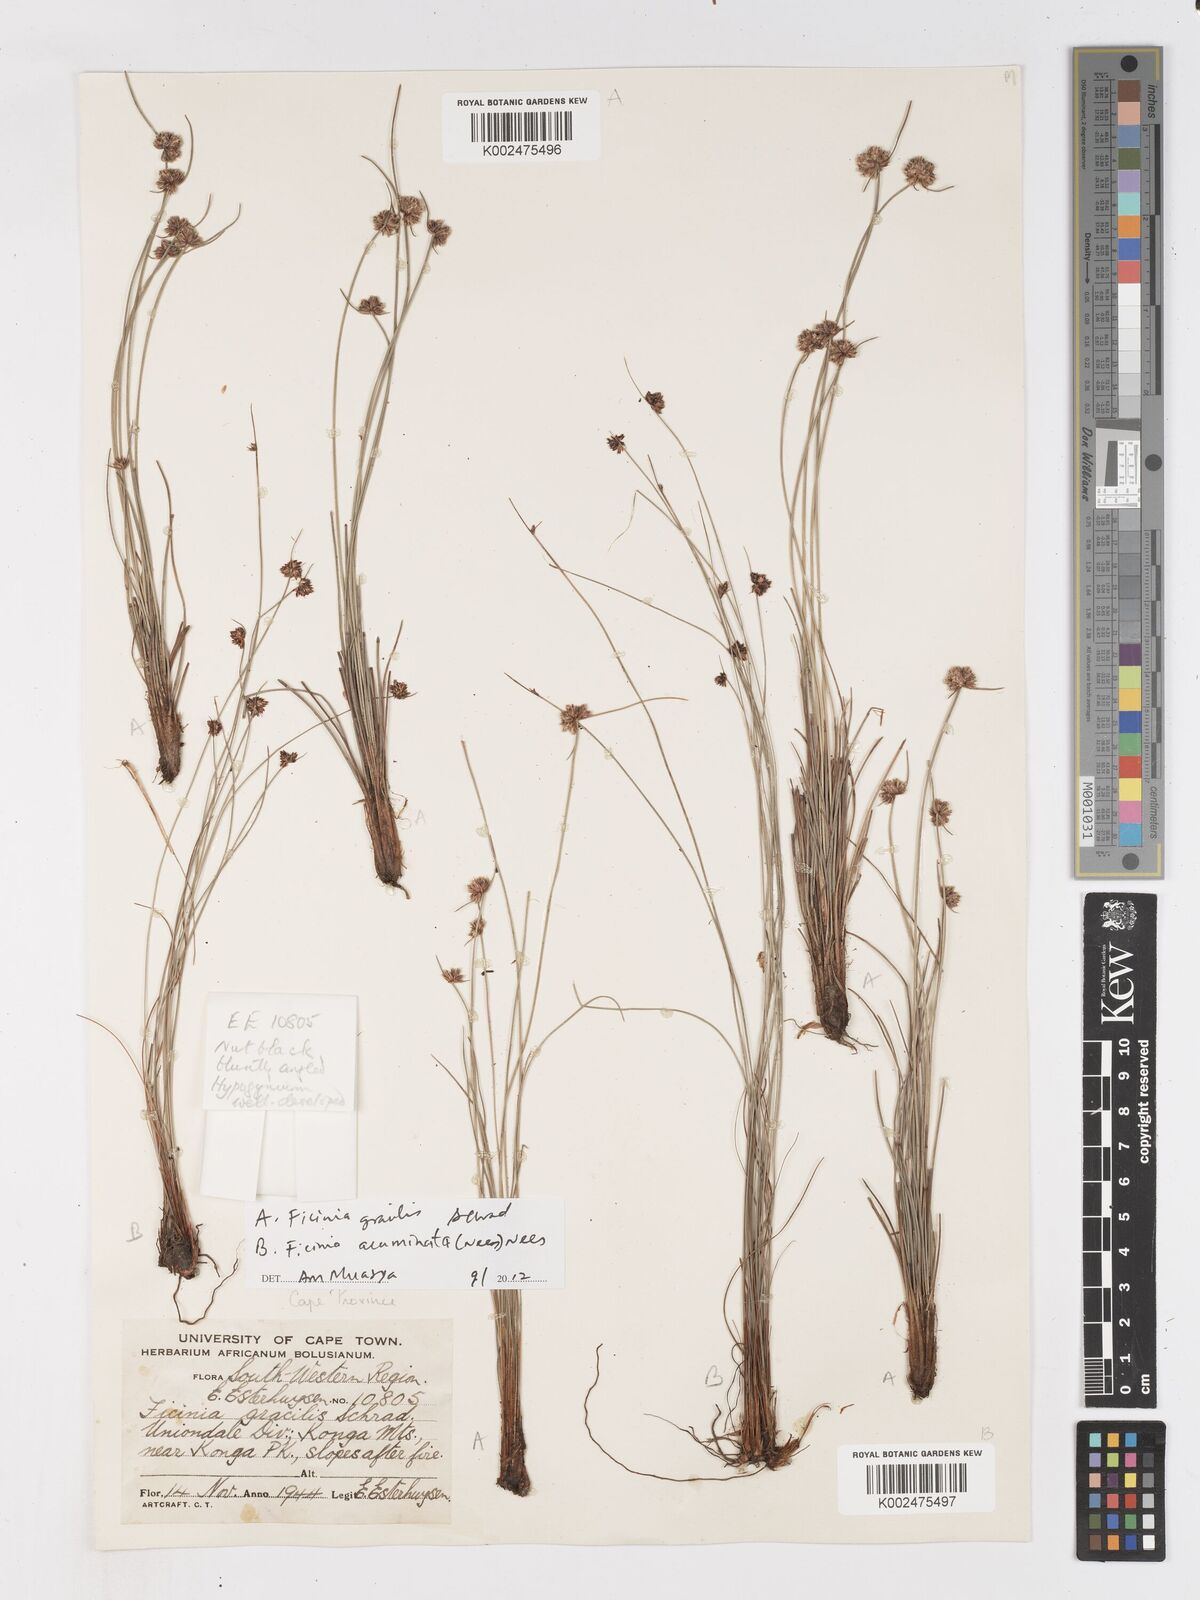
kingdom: Plantae
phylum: Tracheophyta
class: Liliopsida
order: Poales
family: Cyperaceae
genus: Ficinia
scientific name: Ficinia gracilis
